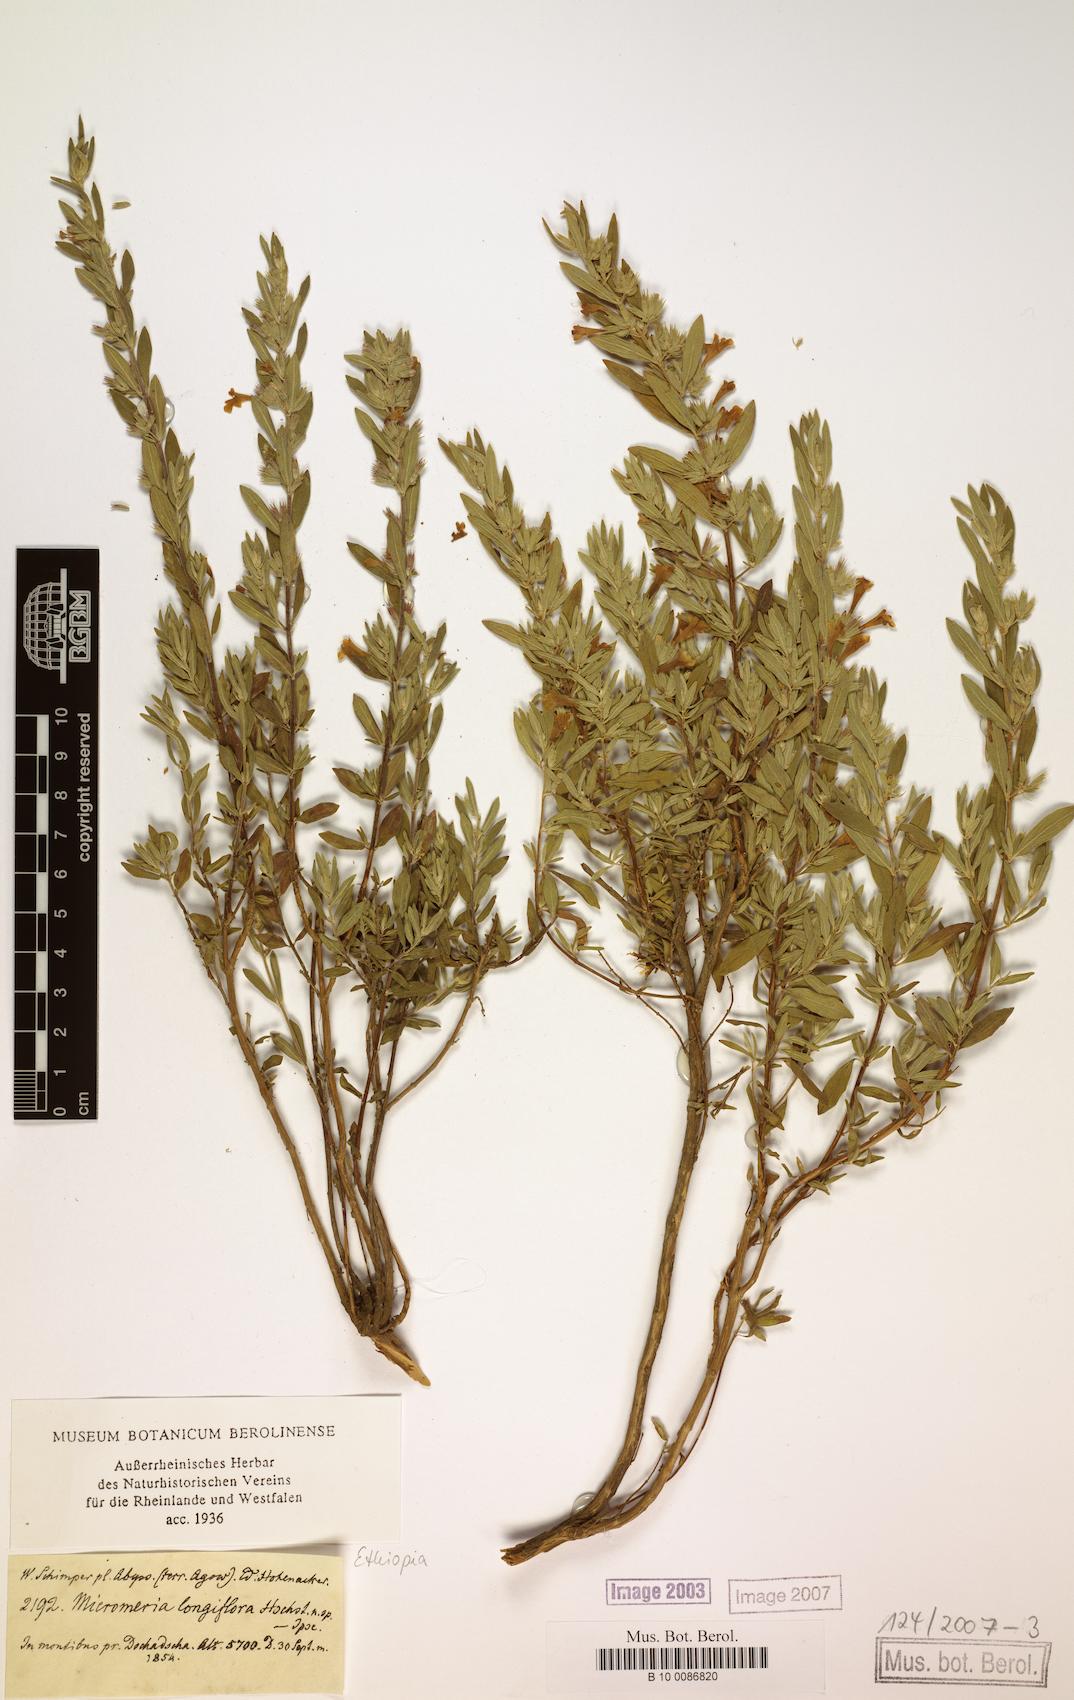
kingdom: Plantae
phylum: Tracheophyta
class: Magnoliopsida
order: Lamiales
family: Lamiaceae
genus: Micromeria
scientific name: Micromeria unguentaria
